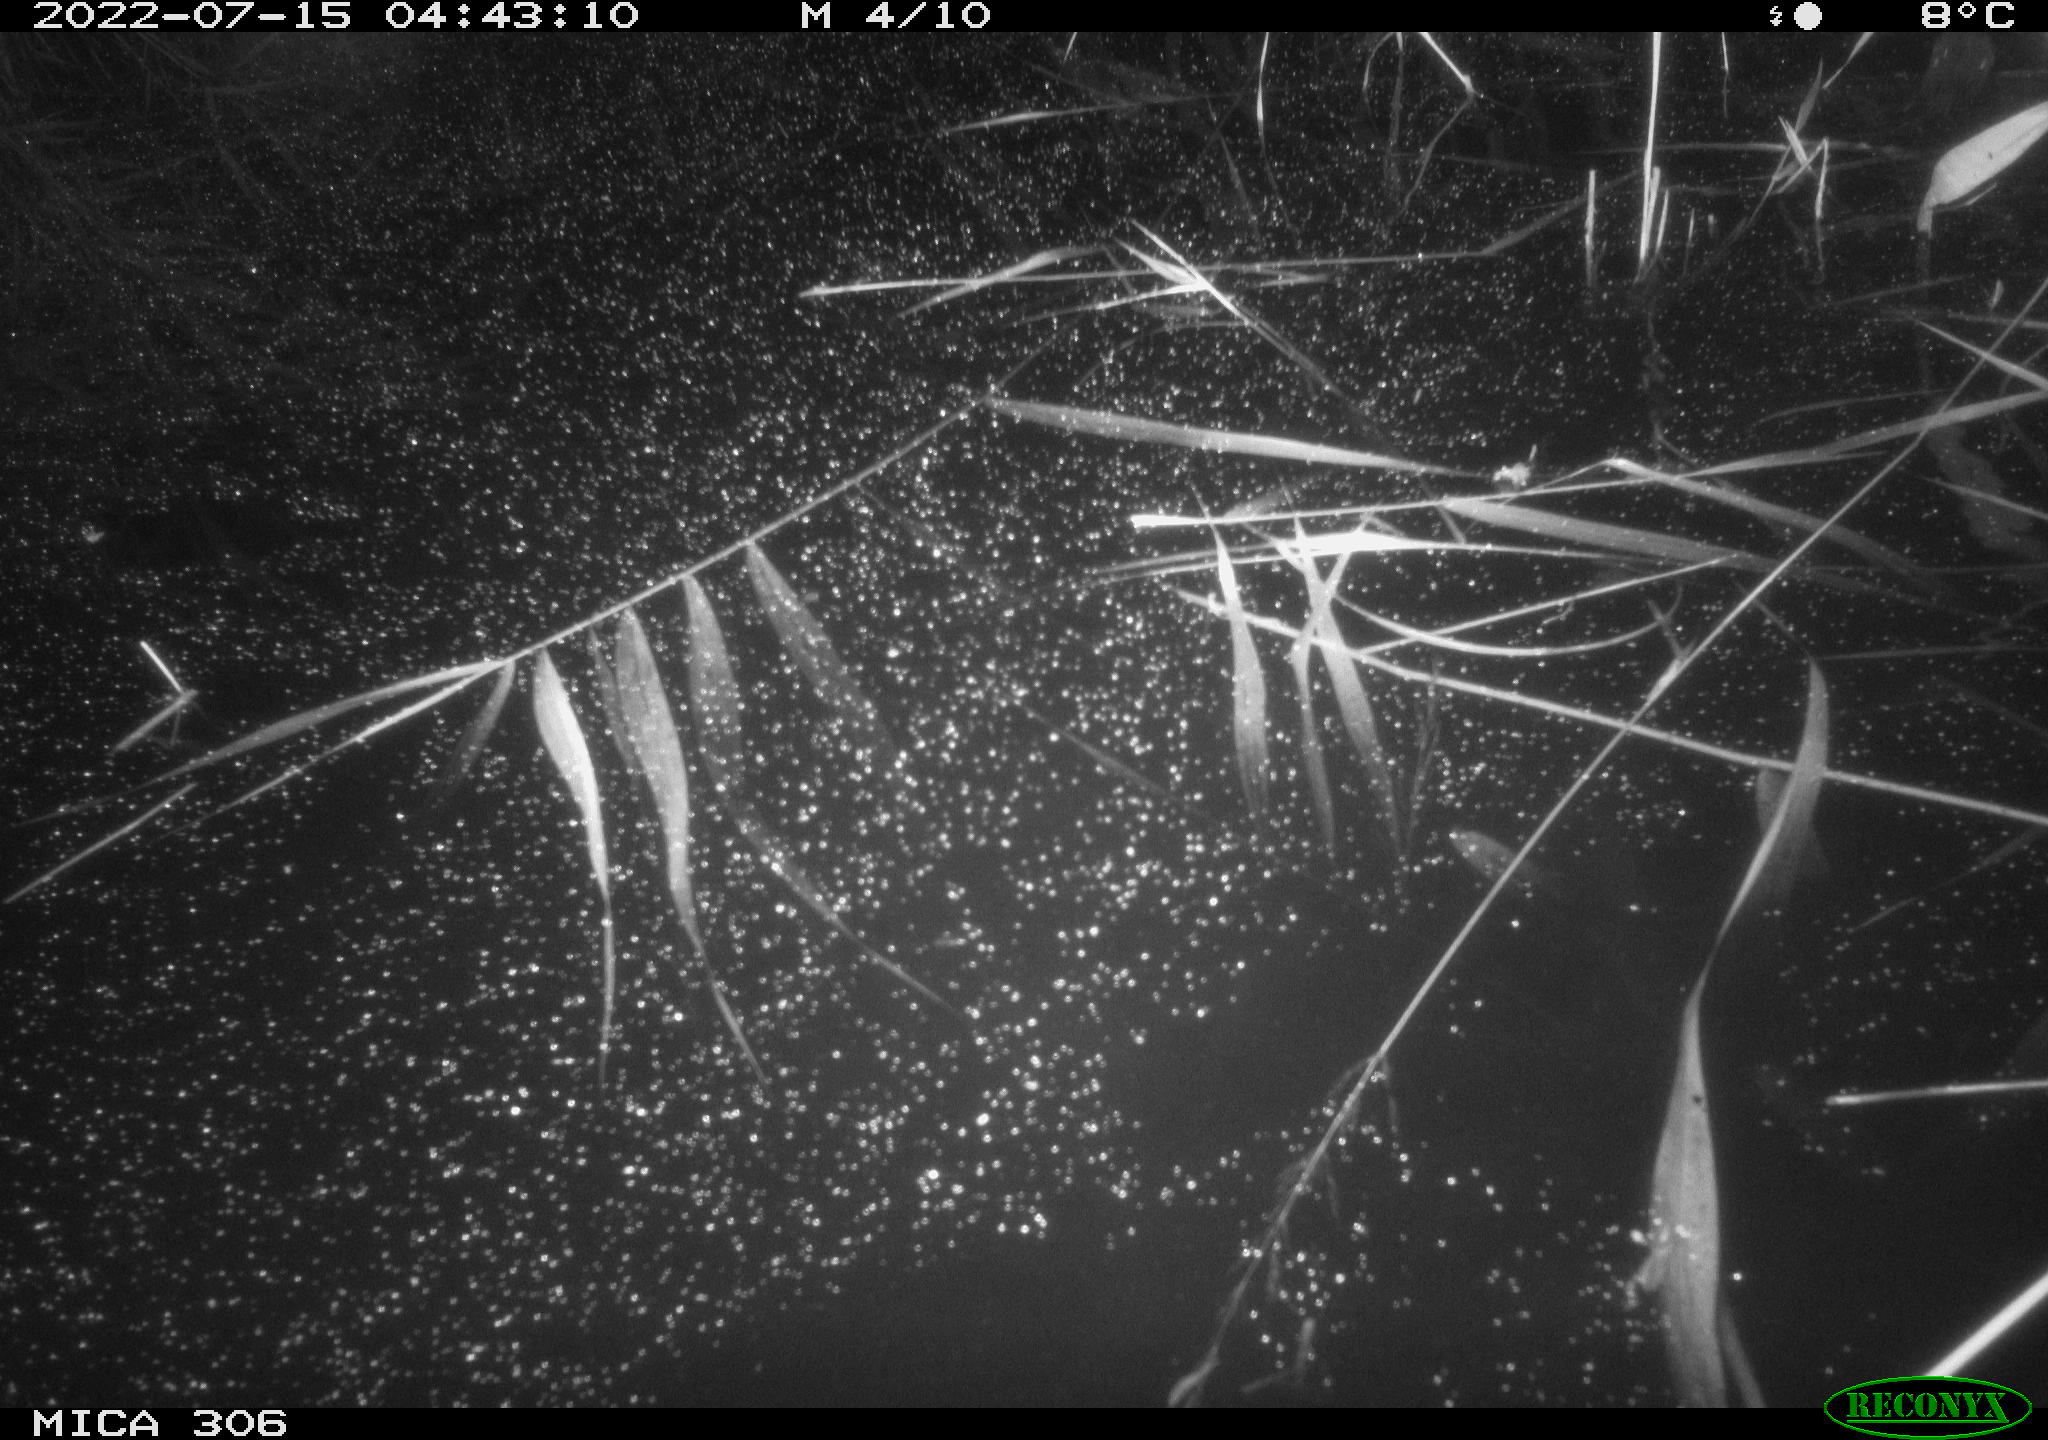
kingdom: Animalia
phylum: Chordata
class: Mammalia
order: Rodentia
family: Muridae
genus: Rattus
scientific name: Rattus norvegicus
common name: Brown rat
